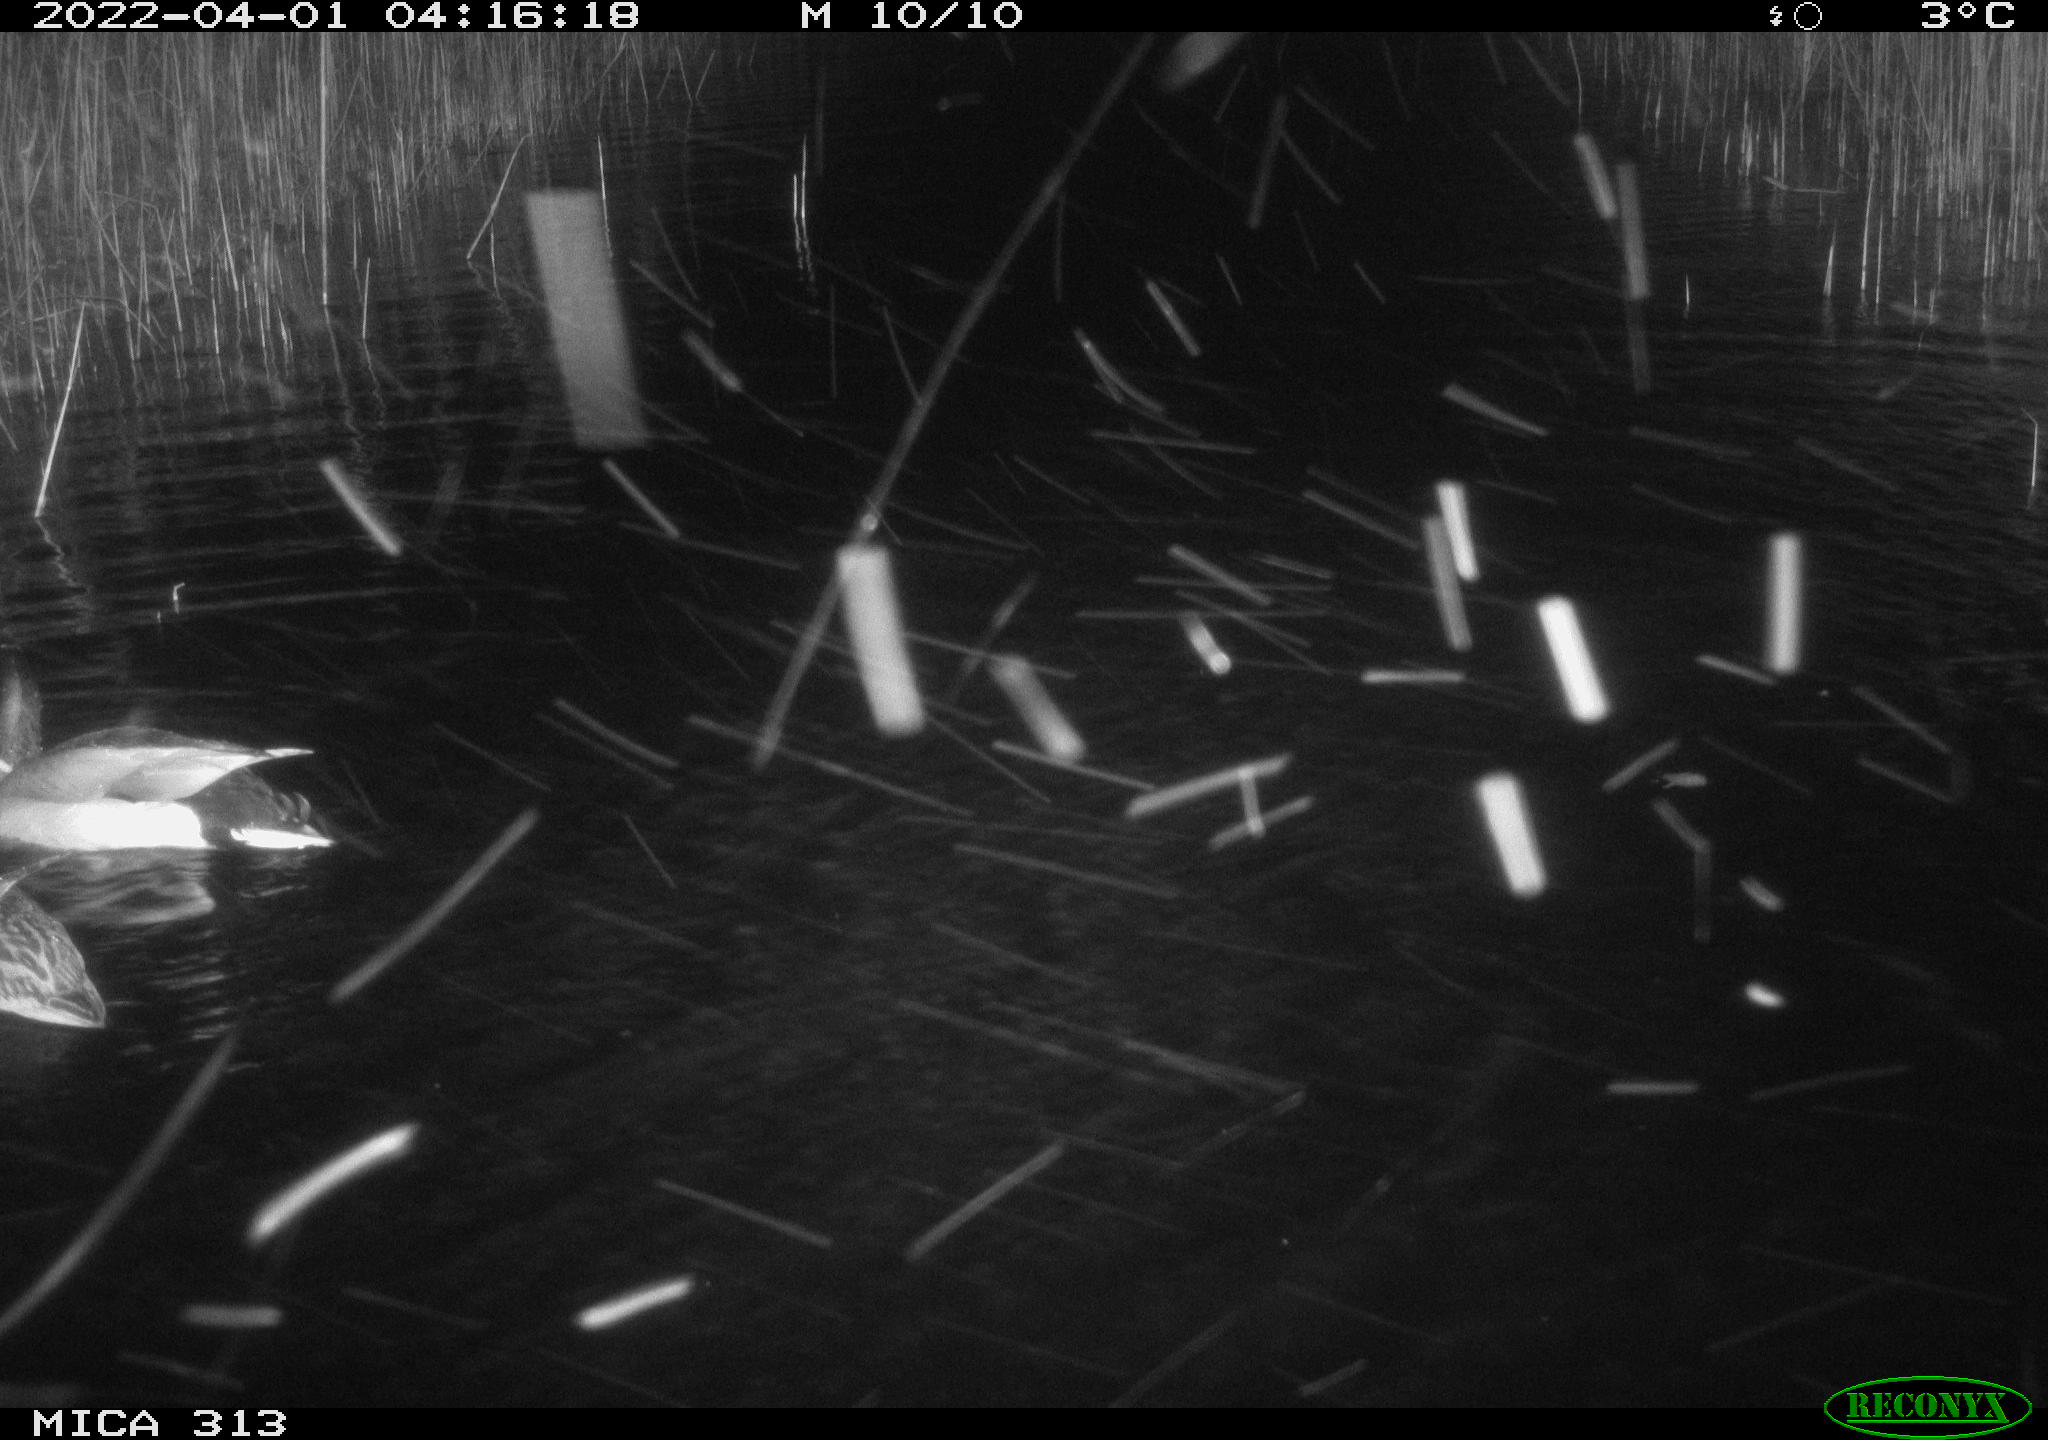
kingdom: Animalia
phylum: Chordata
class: Aves
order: Anseriformes
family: Anatidae
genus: Anas
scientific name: Anas platyrhynchos
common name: Mallard
